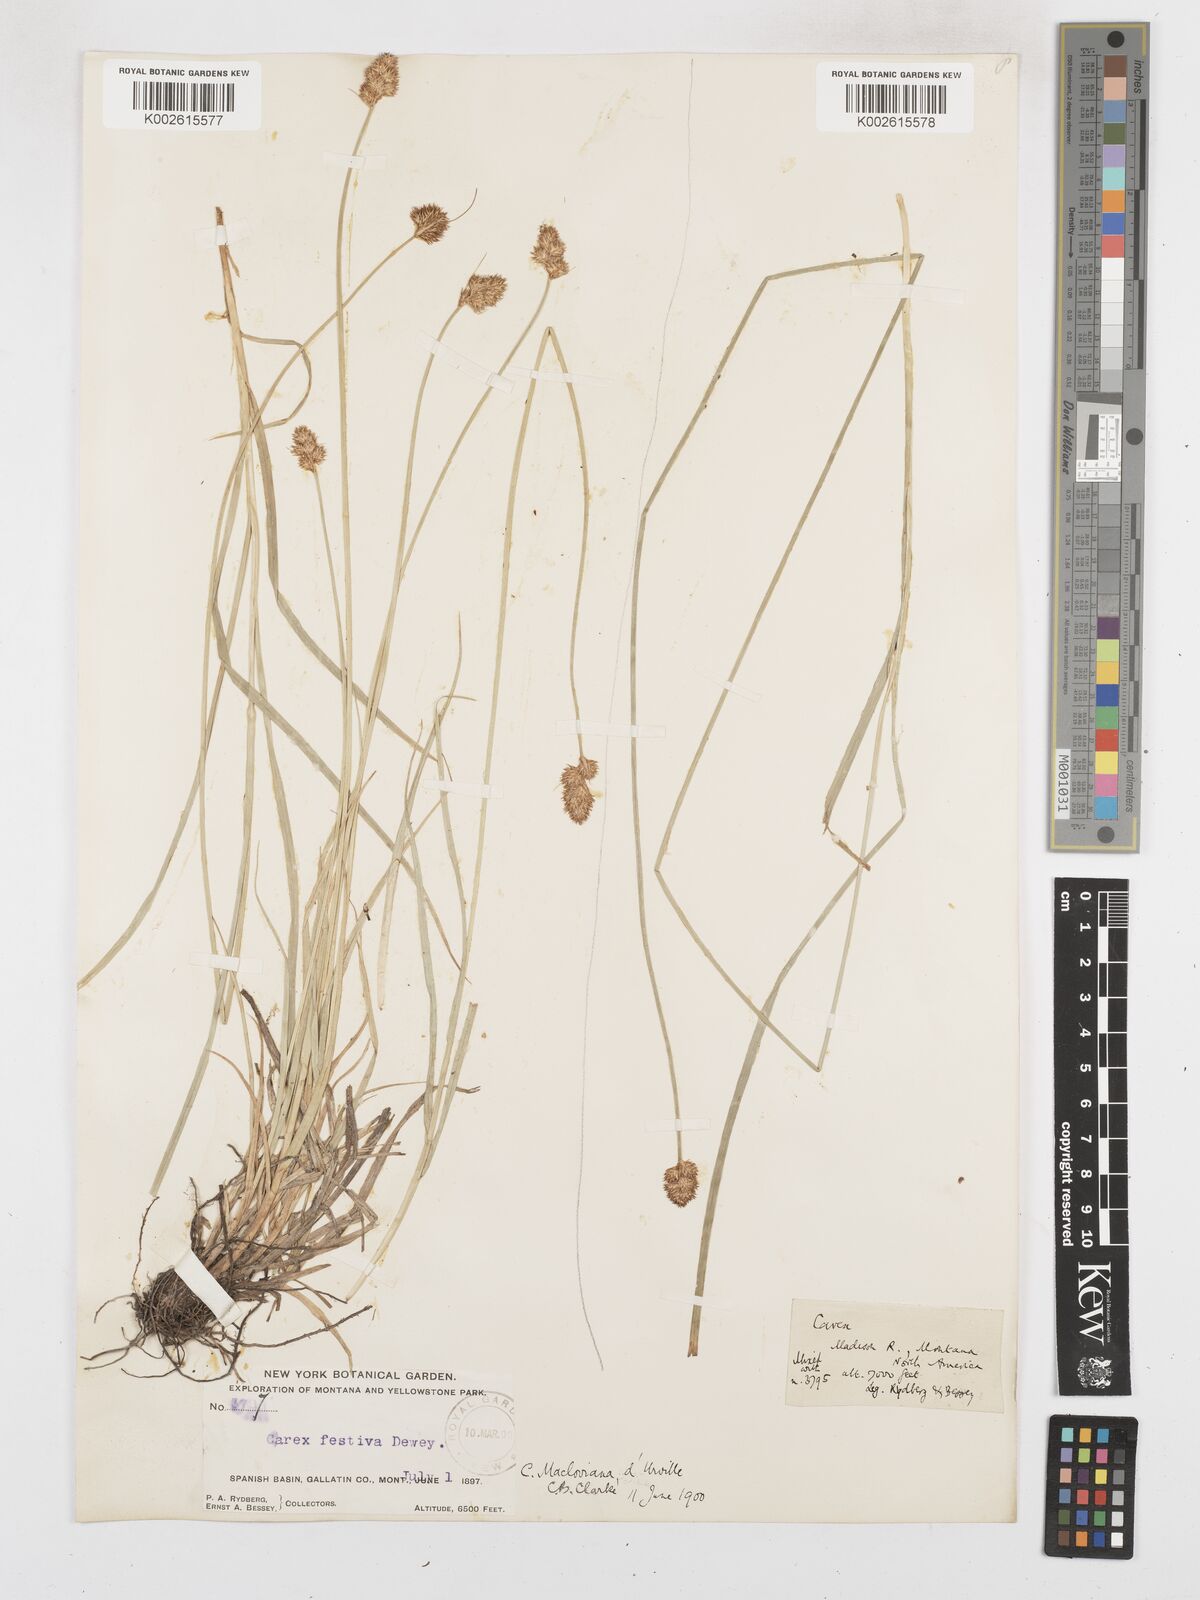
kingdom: Plantae
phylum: Tracheophyta
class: Liliopsida
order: Poales
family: Cyperaceae
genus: Carex
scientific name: Carex macloviana
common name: Falkland island sedge
